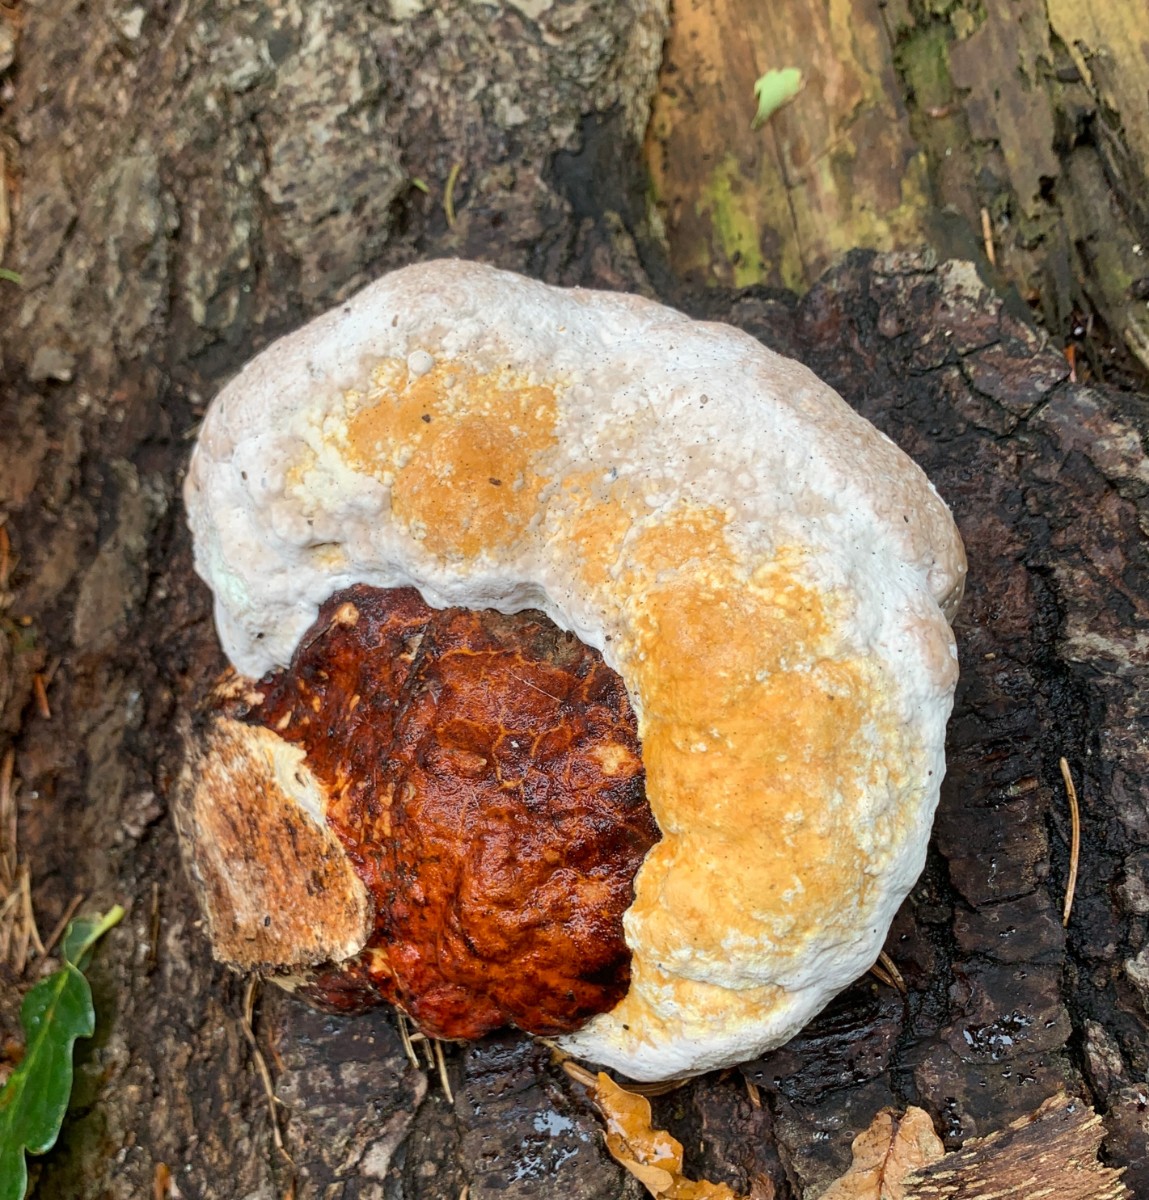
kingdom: Fungi
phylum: Basidiomycota
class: Agaricomycetes
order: Polyporales
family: Fomitopsidaceae
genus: Fomitopsis
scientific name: Fomitopsis pinicola
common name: randbæltet hovporesvamp
